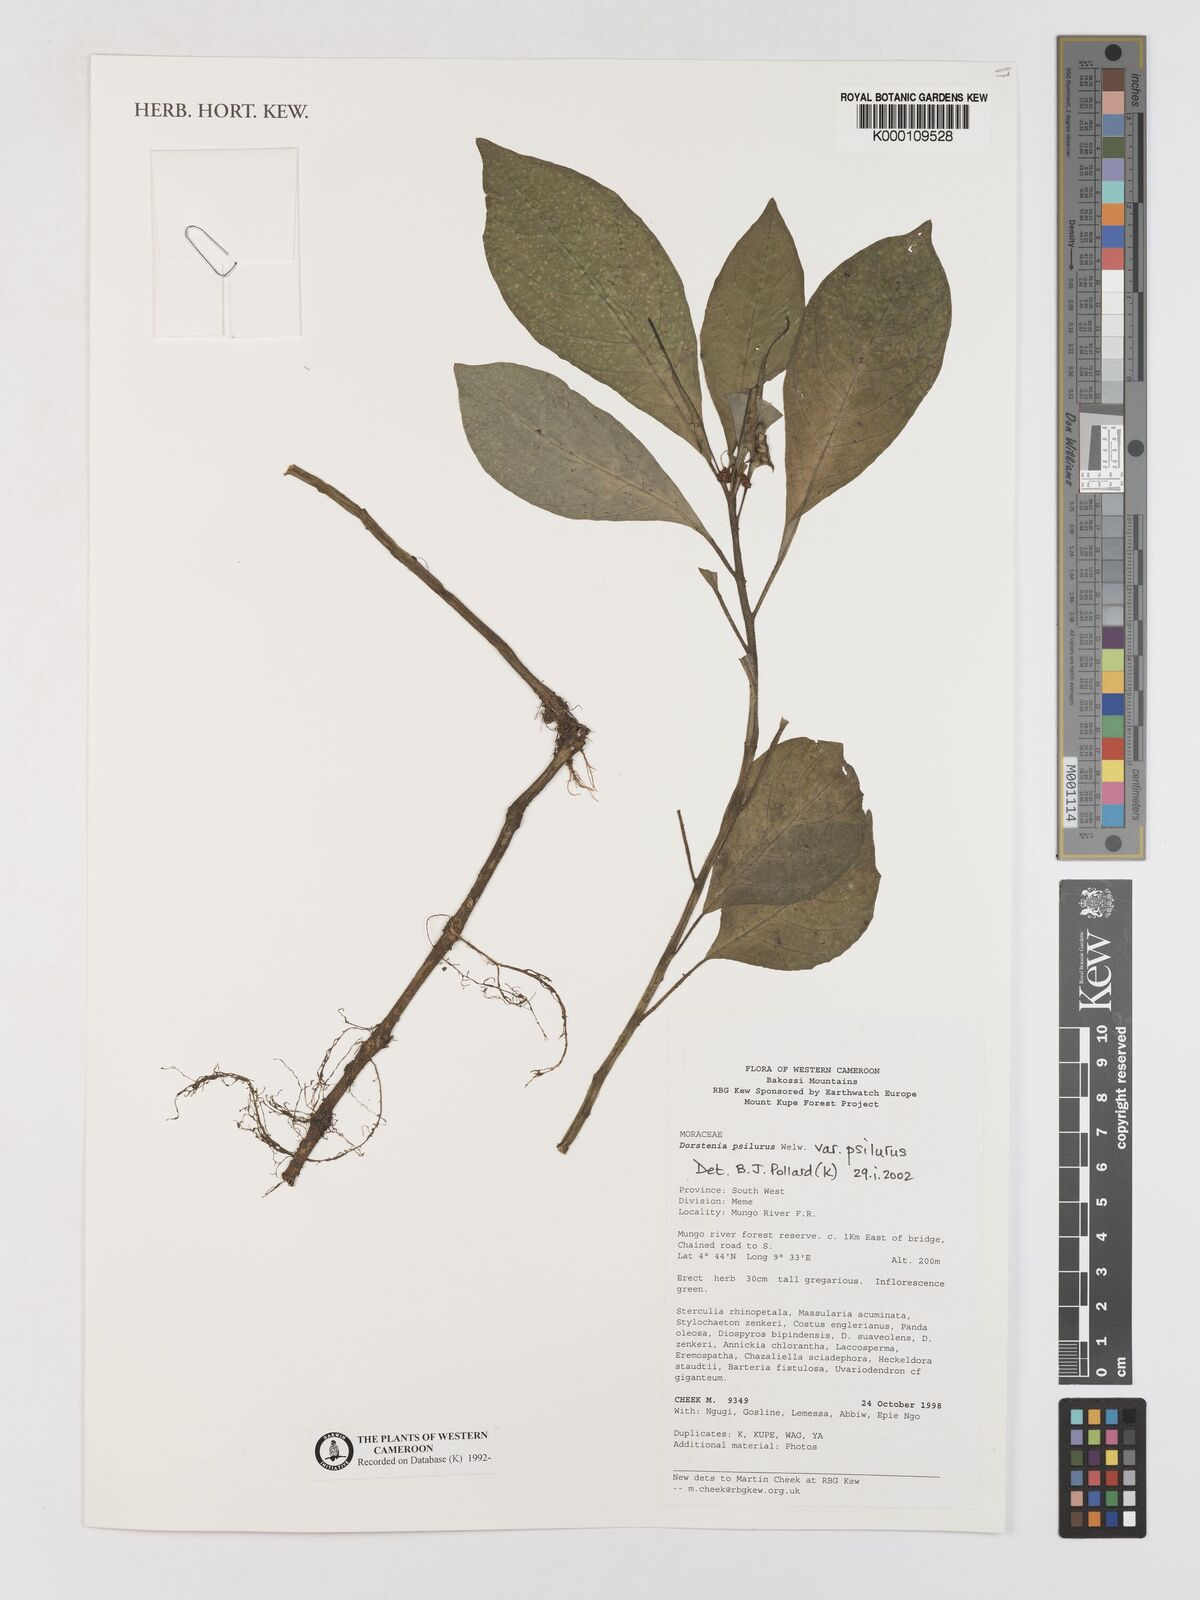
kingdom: Plantae
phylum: Tracheophyta
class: Magnoliopsida
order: Rosales
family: Moraceae
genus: Dorstenia
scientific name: Dorstenia psilurus
